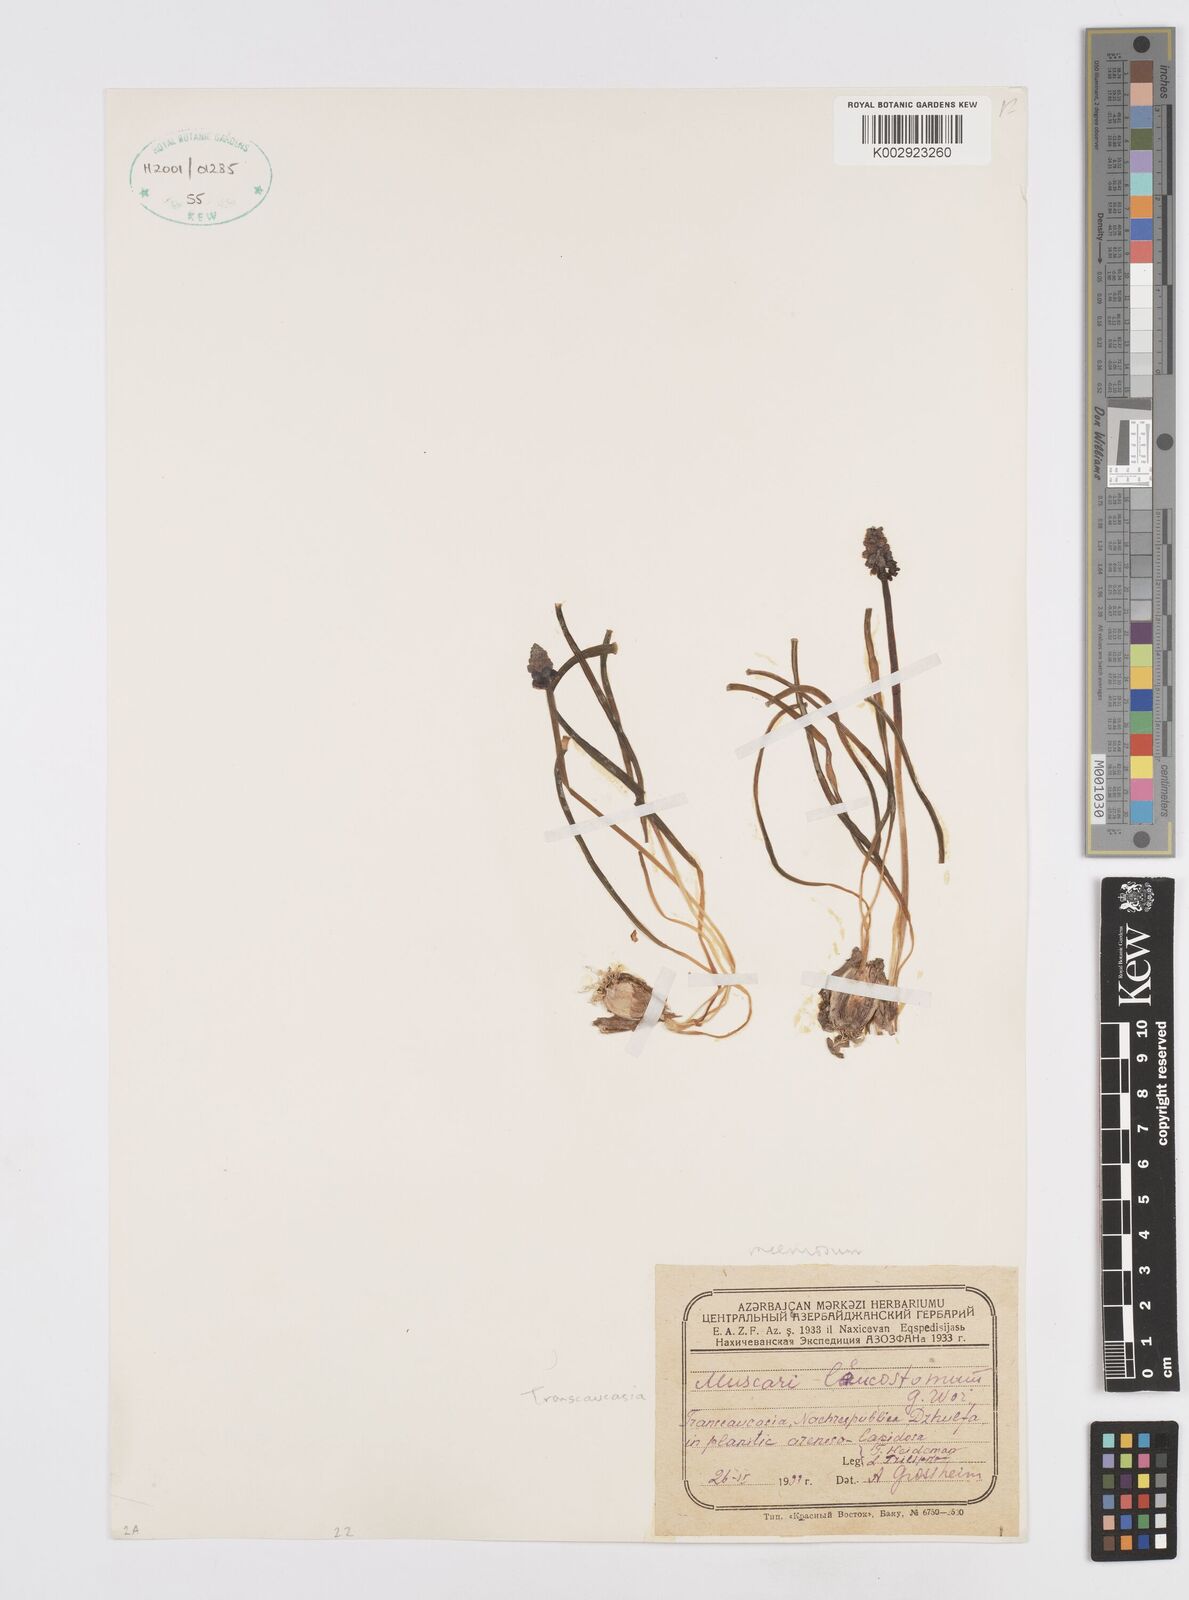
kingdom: Plantae
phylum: Tracheophyta
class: Liliopsida
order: Asparagales
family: Asparagaceae
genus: Muscari
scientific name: Muscari neglectum
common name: Grape-hyacinth
